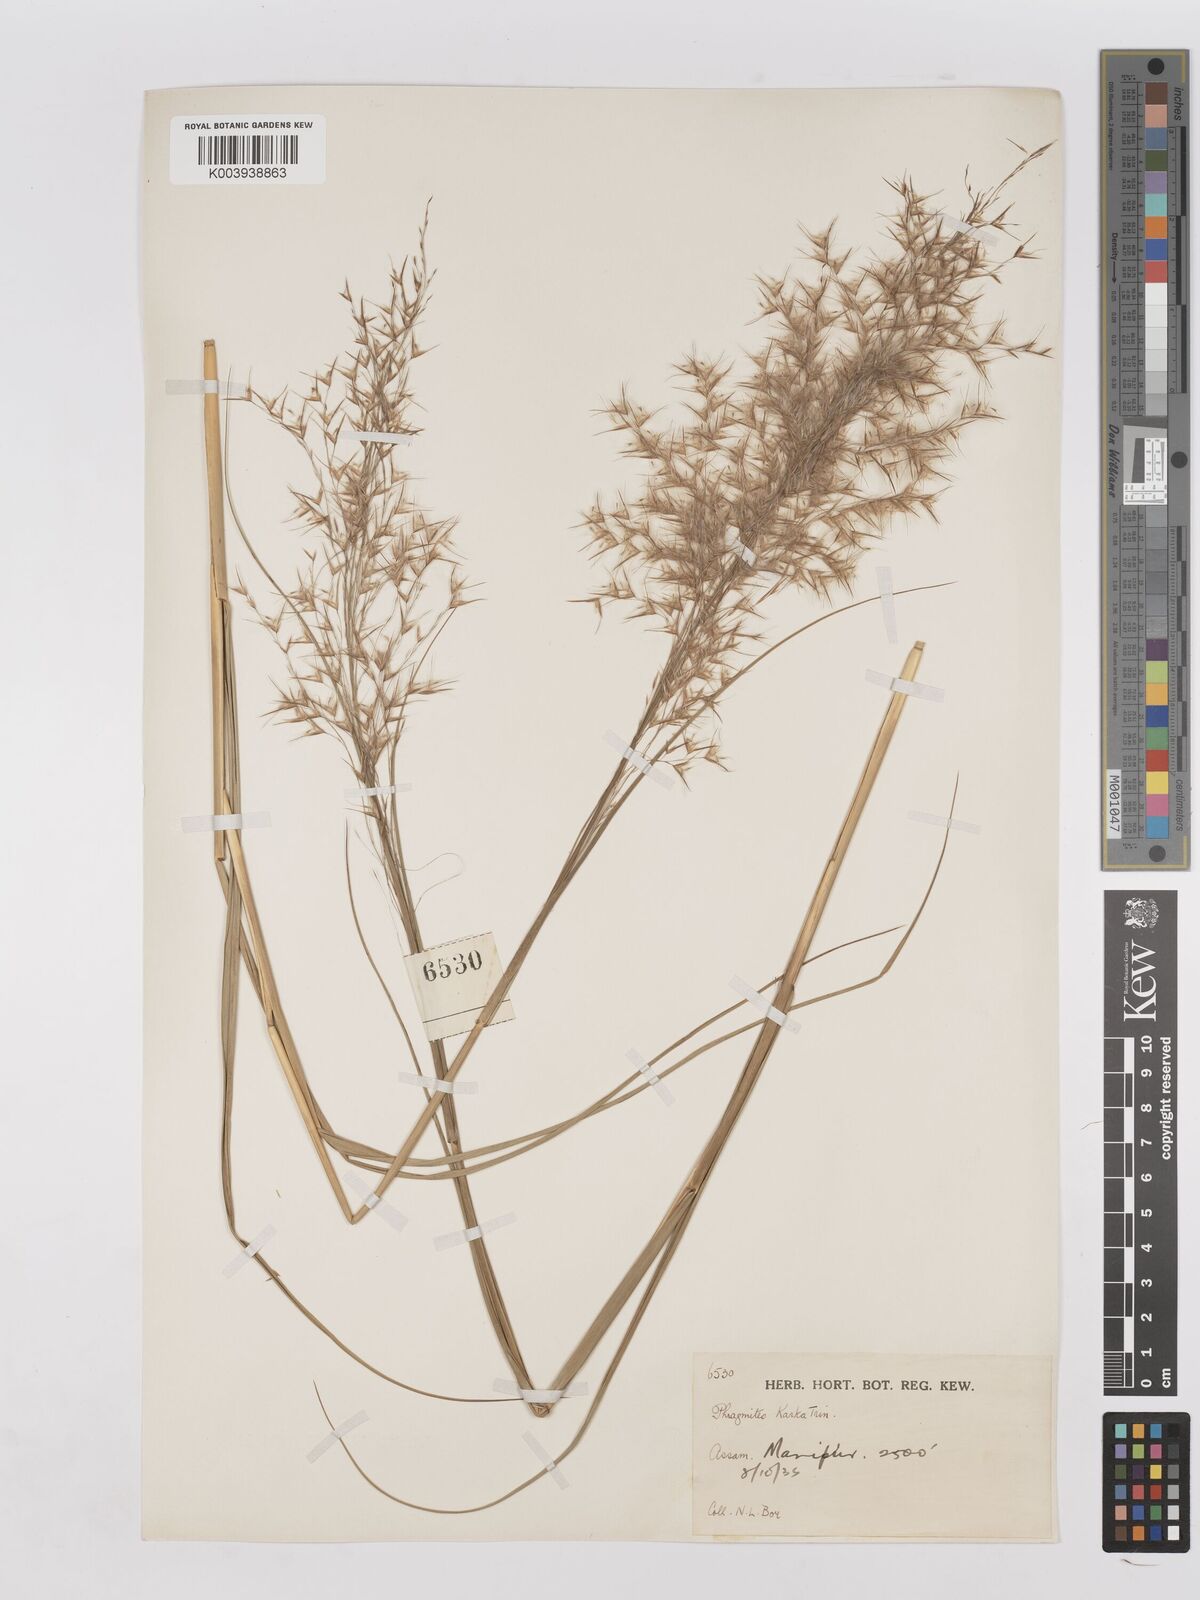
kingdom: Plantae
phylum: Tracheophyta
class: Liliopsida
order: Poales
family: Poaceae
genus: Phragmites
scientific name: Phragmites karka
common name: Tropical reed
